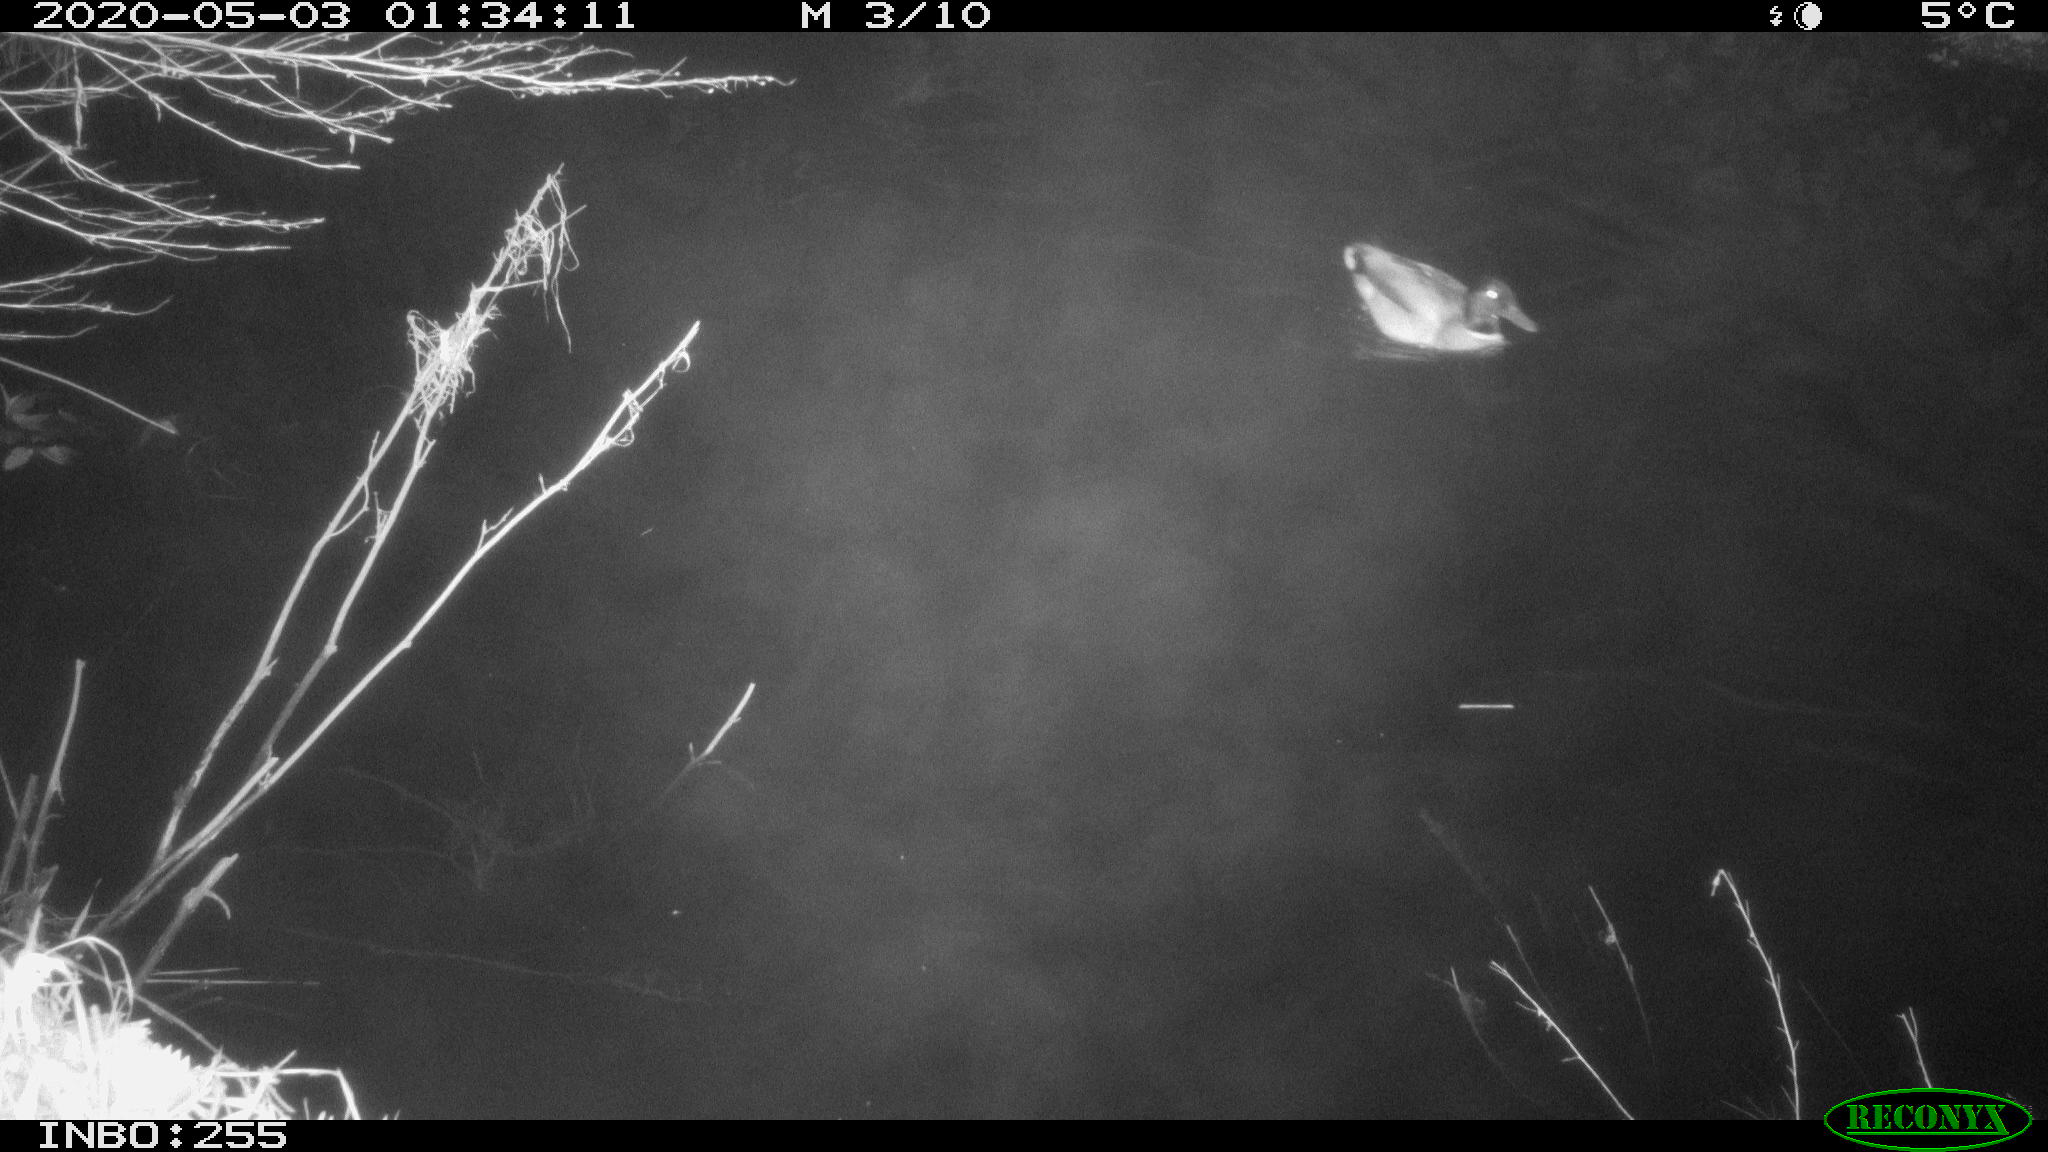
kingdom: Animalia
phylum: Chordata
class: Aves
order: Anseriformes
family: Anatidae
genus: Anas
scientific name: Anas platyrhynchos
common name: Mallard
